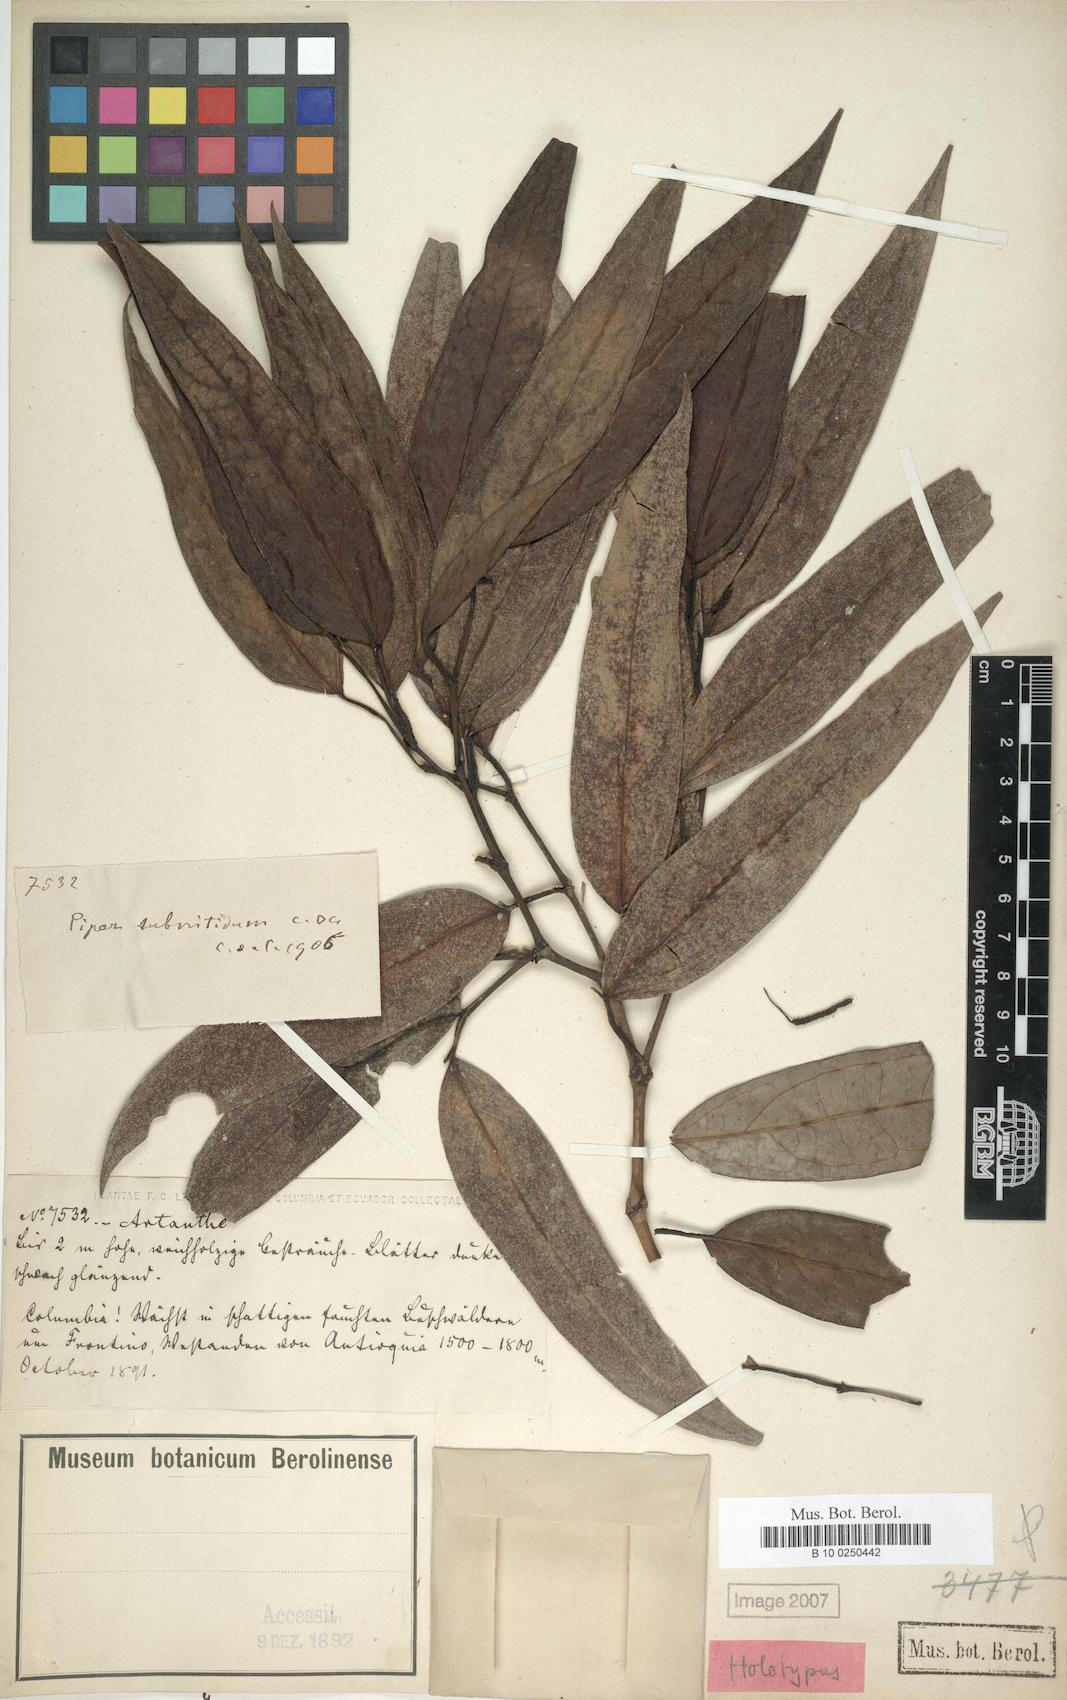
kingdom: Plantae
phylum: Tracheophyta
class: Magnoliopsida
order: Piperales
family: Piperaceae
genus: Piper
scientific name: Piper subnitidum
